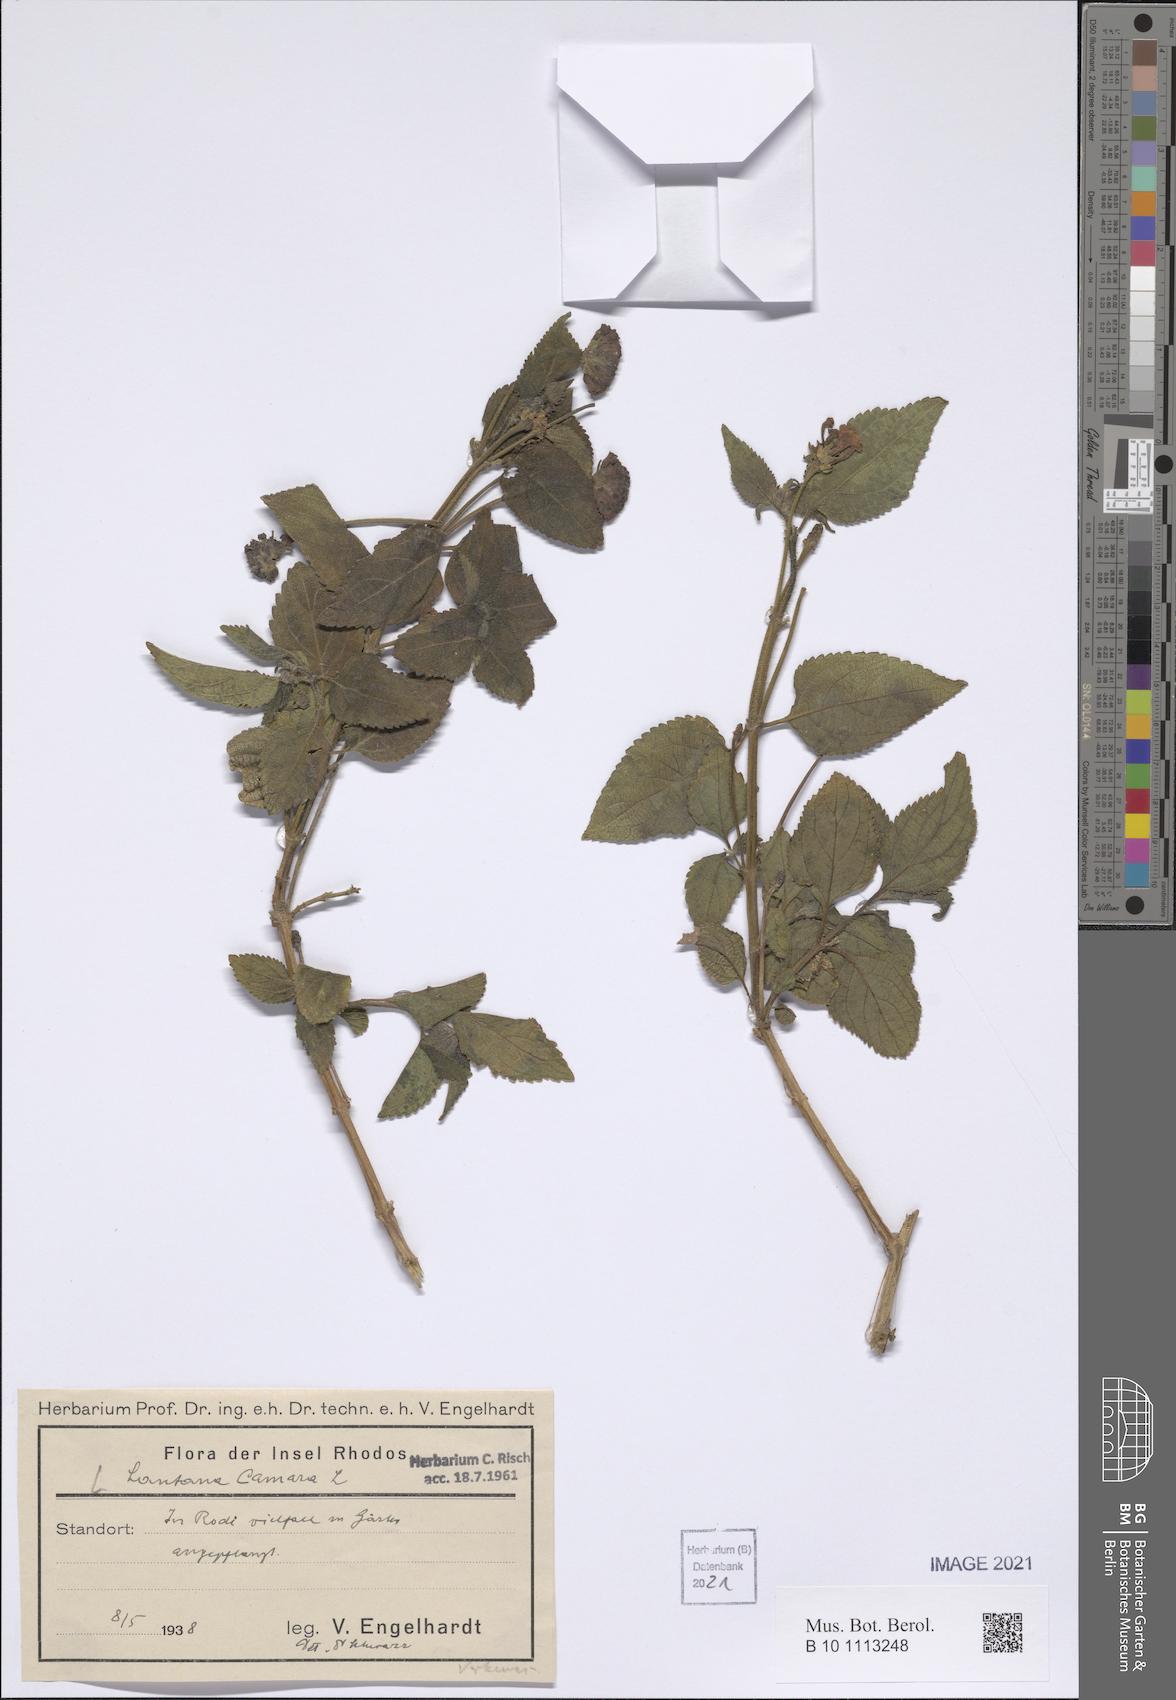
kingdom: Plantae
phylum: Tracheophyta
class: Magnoliopsida
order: Lamiales
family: Verbenaceae
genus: Lantana
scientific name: Lantana camara
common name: Lantana
